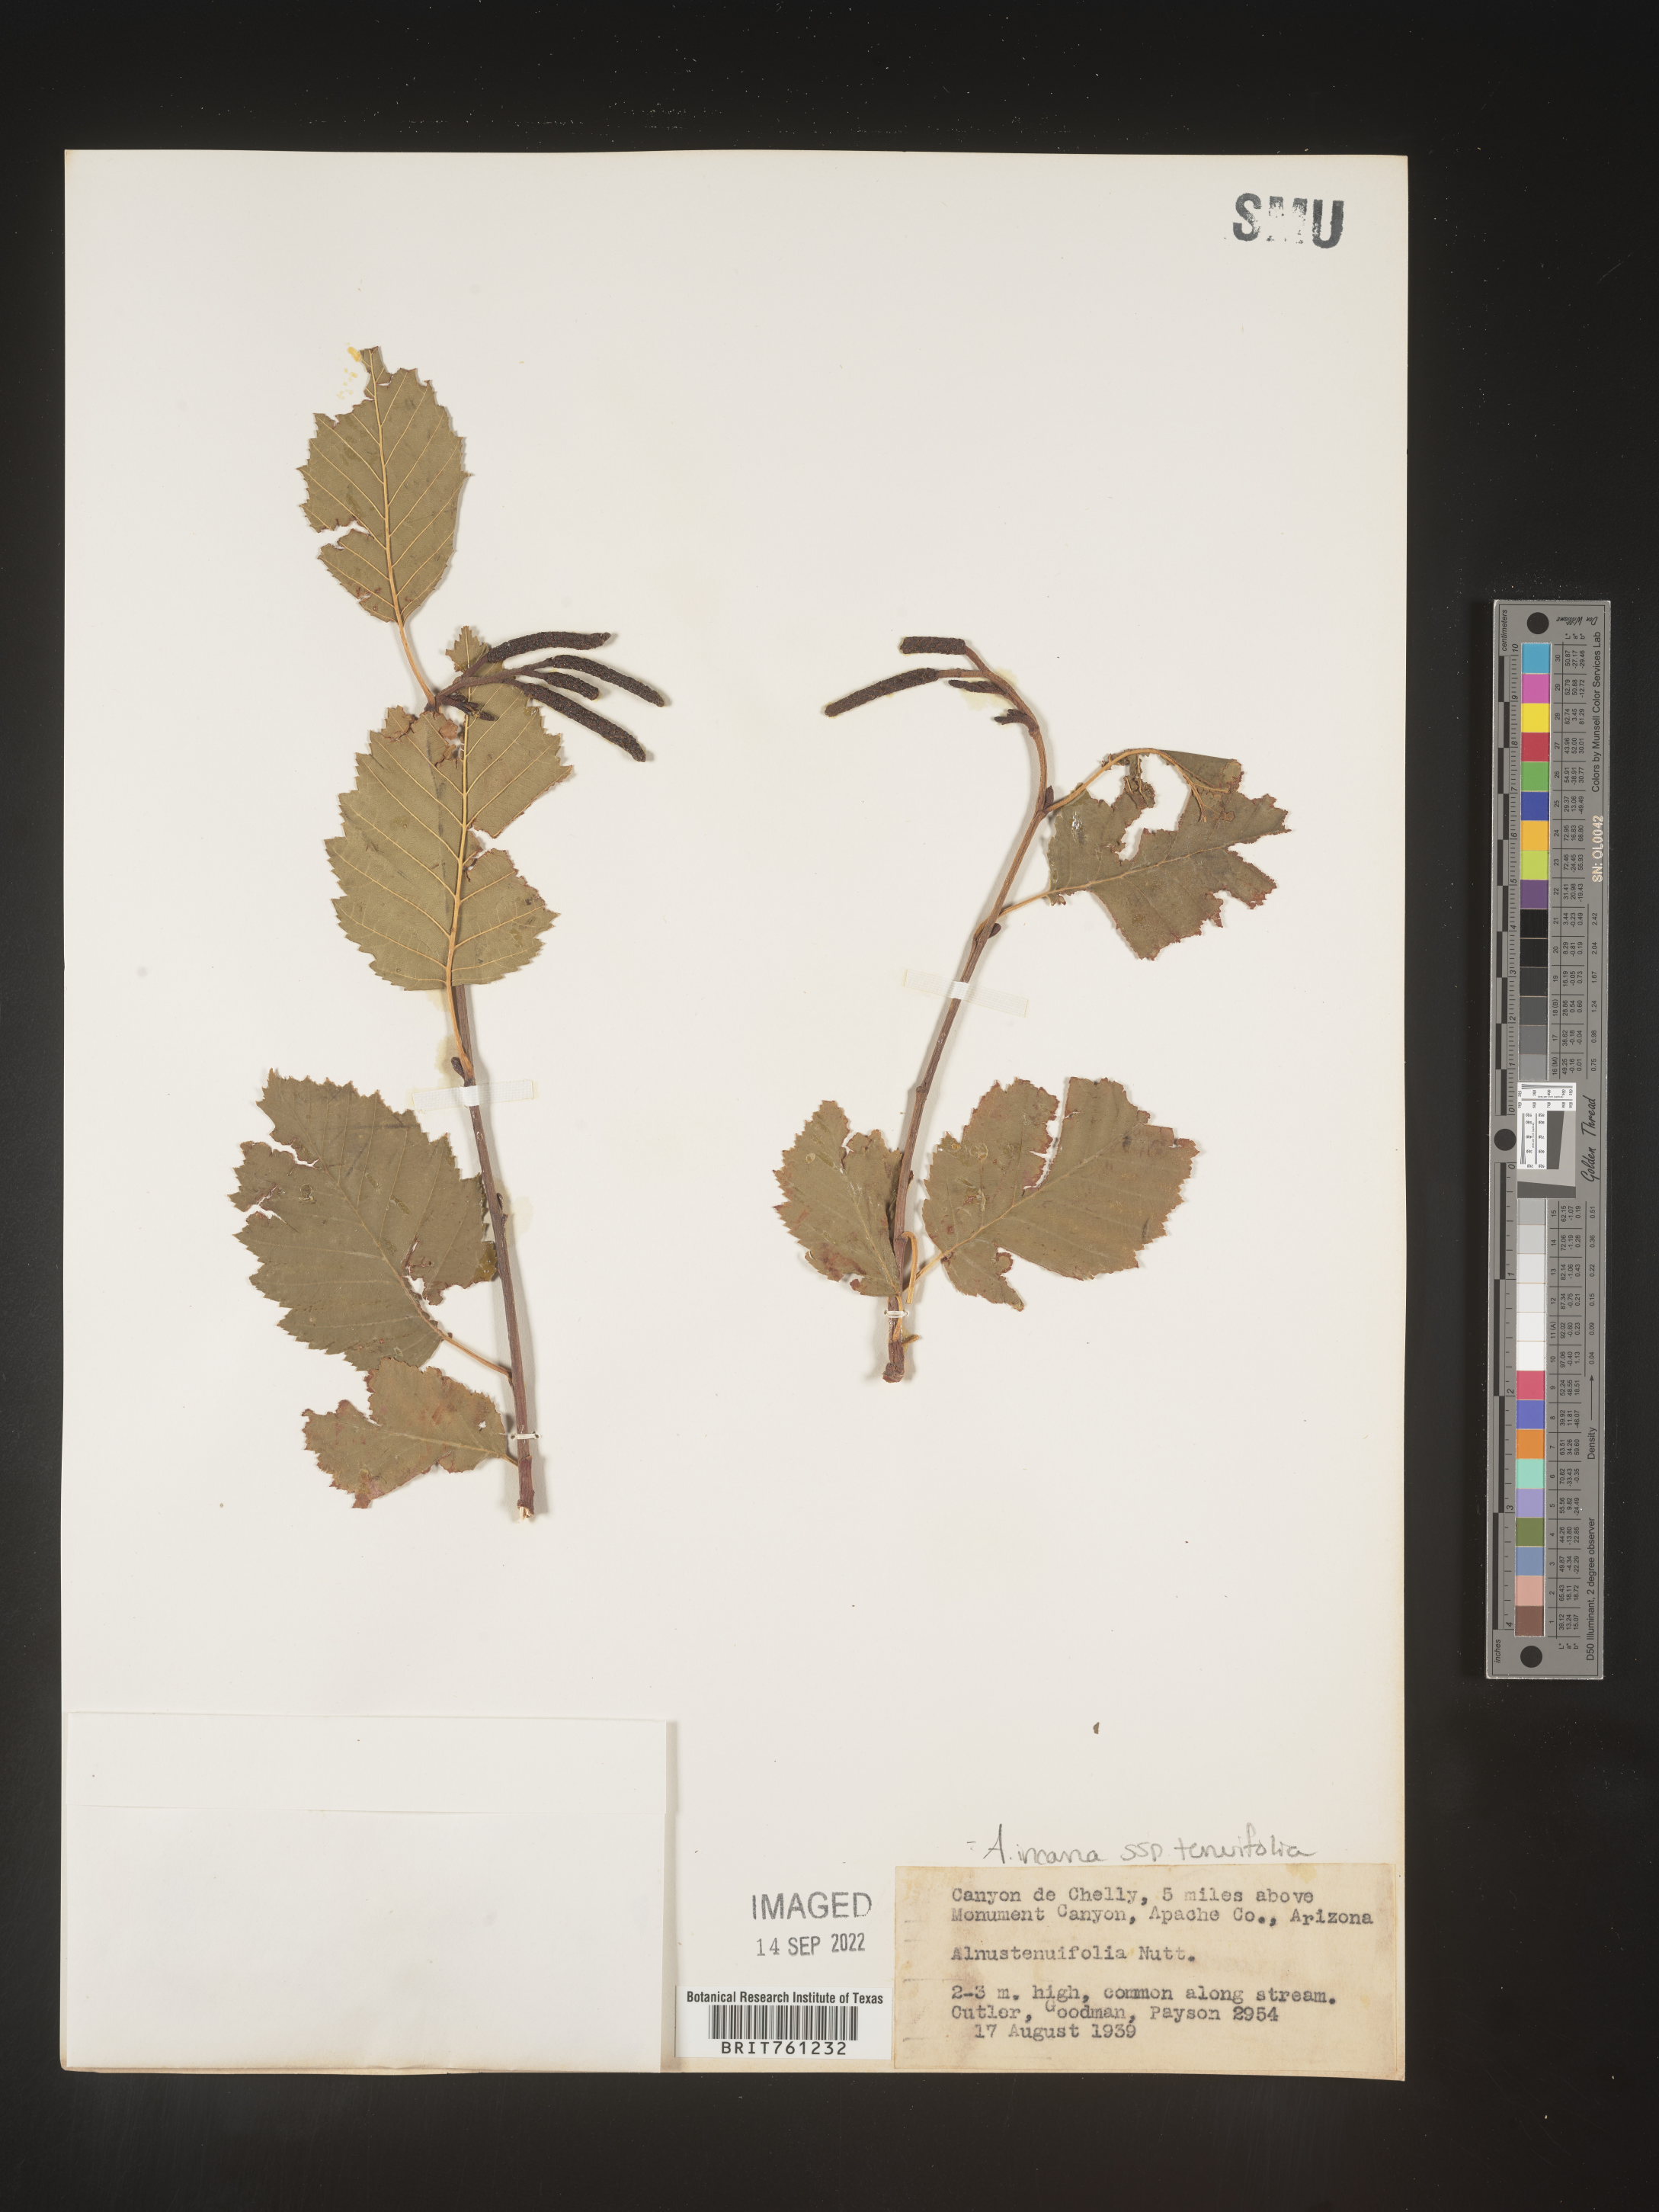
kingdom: Plantae
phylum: Tracheophyta
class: Magnoliopsida
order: Fagales
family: Betulaceae
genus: Alnus
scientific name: Alnus incana
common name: Grey alder
